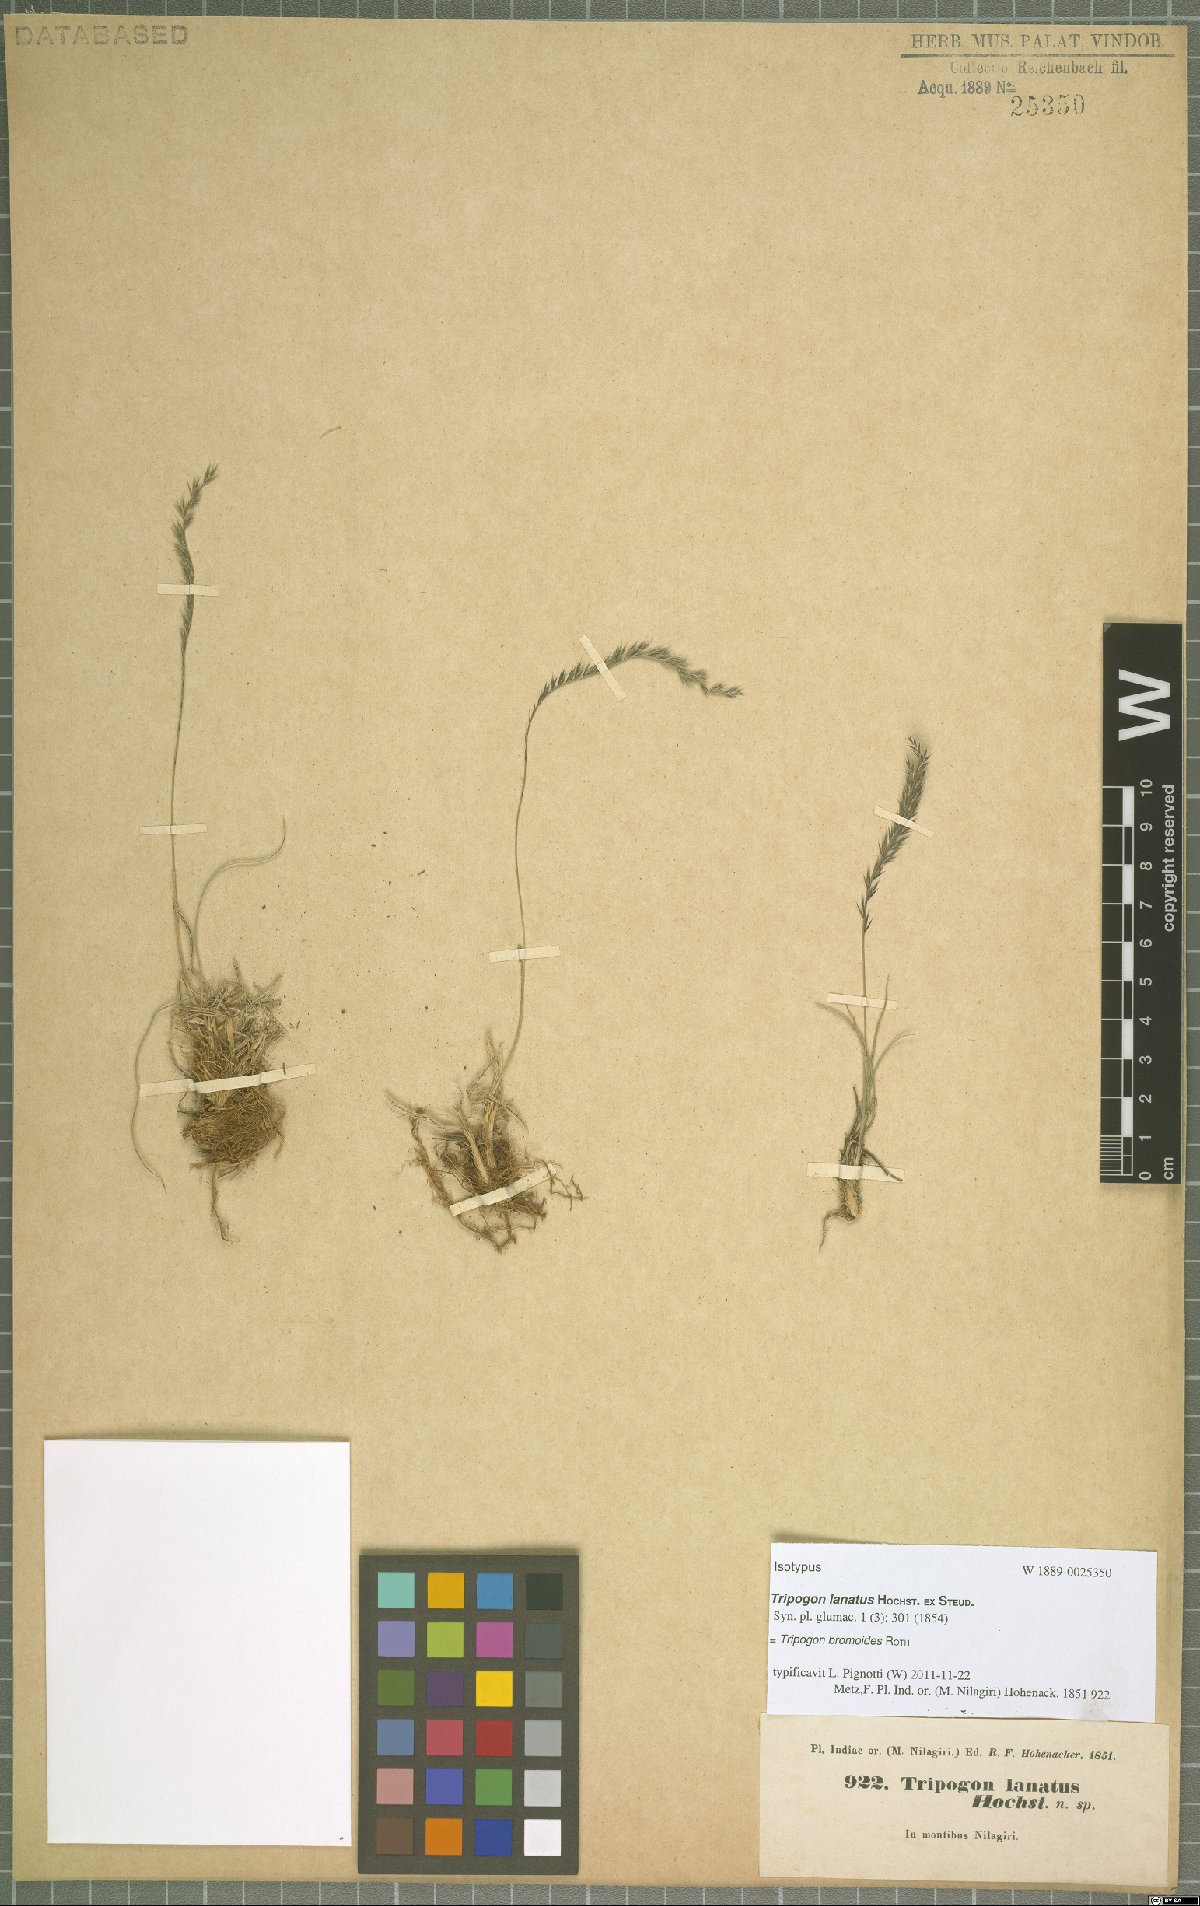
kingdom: Plantae
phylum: Tracheophyta
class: Liliopsida
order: Poales
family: Poaceae
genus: Tripogon
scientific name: Tripogon bromoides
